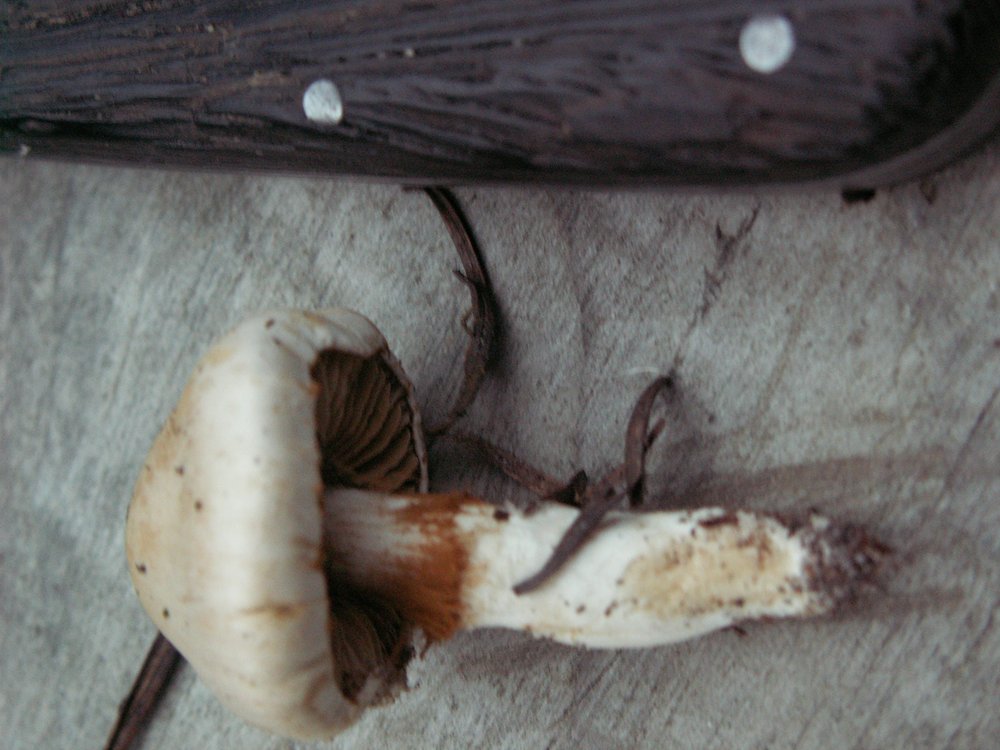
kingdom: Fungi
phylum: Basidiomycota
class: Agaricomycetes
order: Agaricales
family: Cortinariaceae
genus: Thaxterogaster
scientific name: Thaxterogaster leucoluteolus
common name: isabella slørhat
